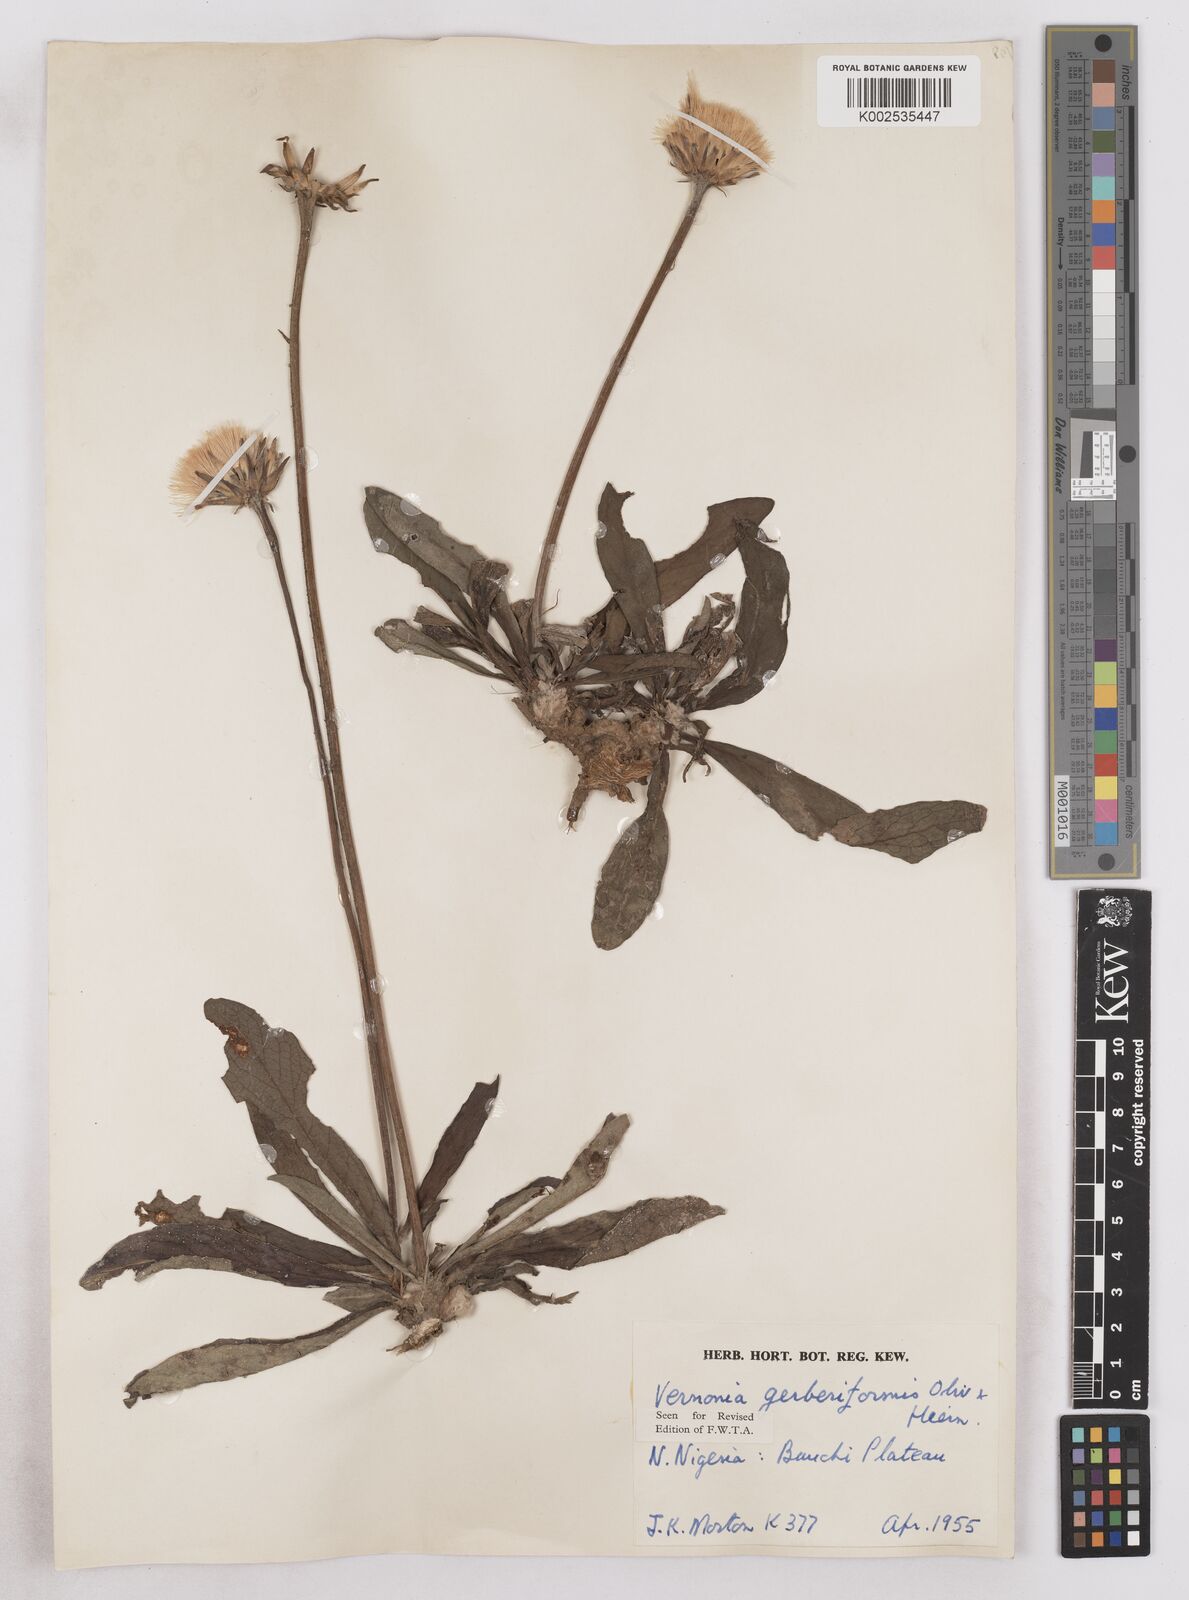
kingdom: Plantae
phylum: Tracheophyta
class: Magnoliopsida
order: Asterales
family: Asteraceae
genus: Linzia
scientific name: Linzia gerberiformis
